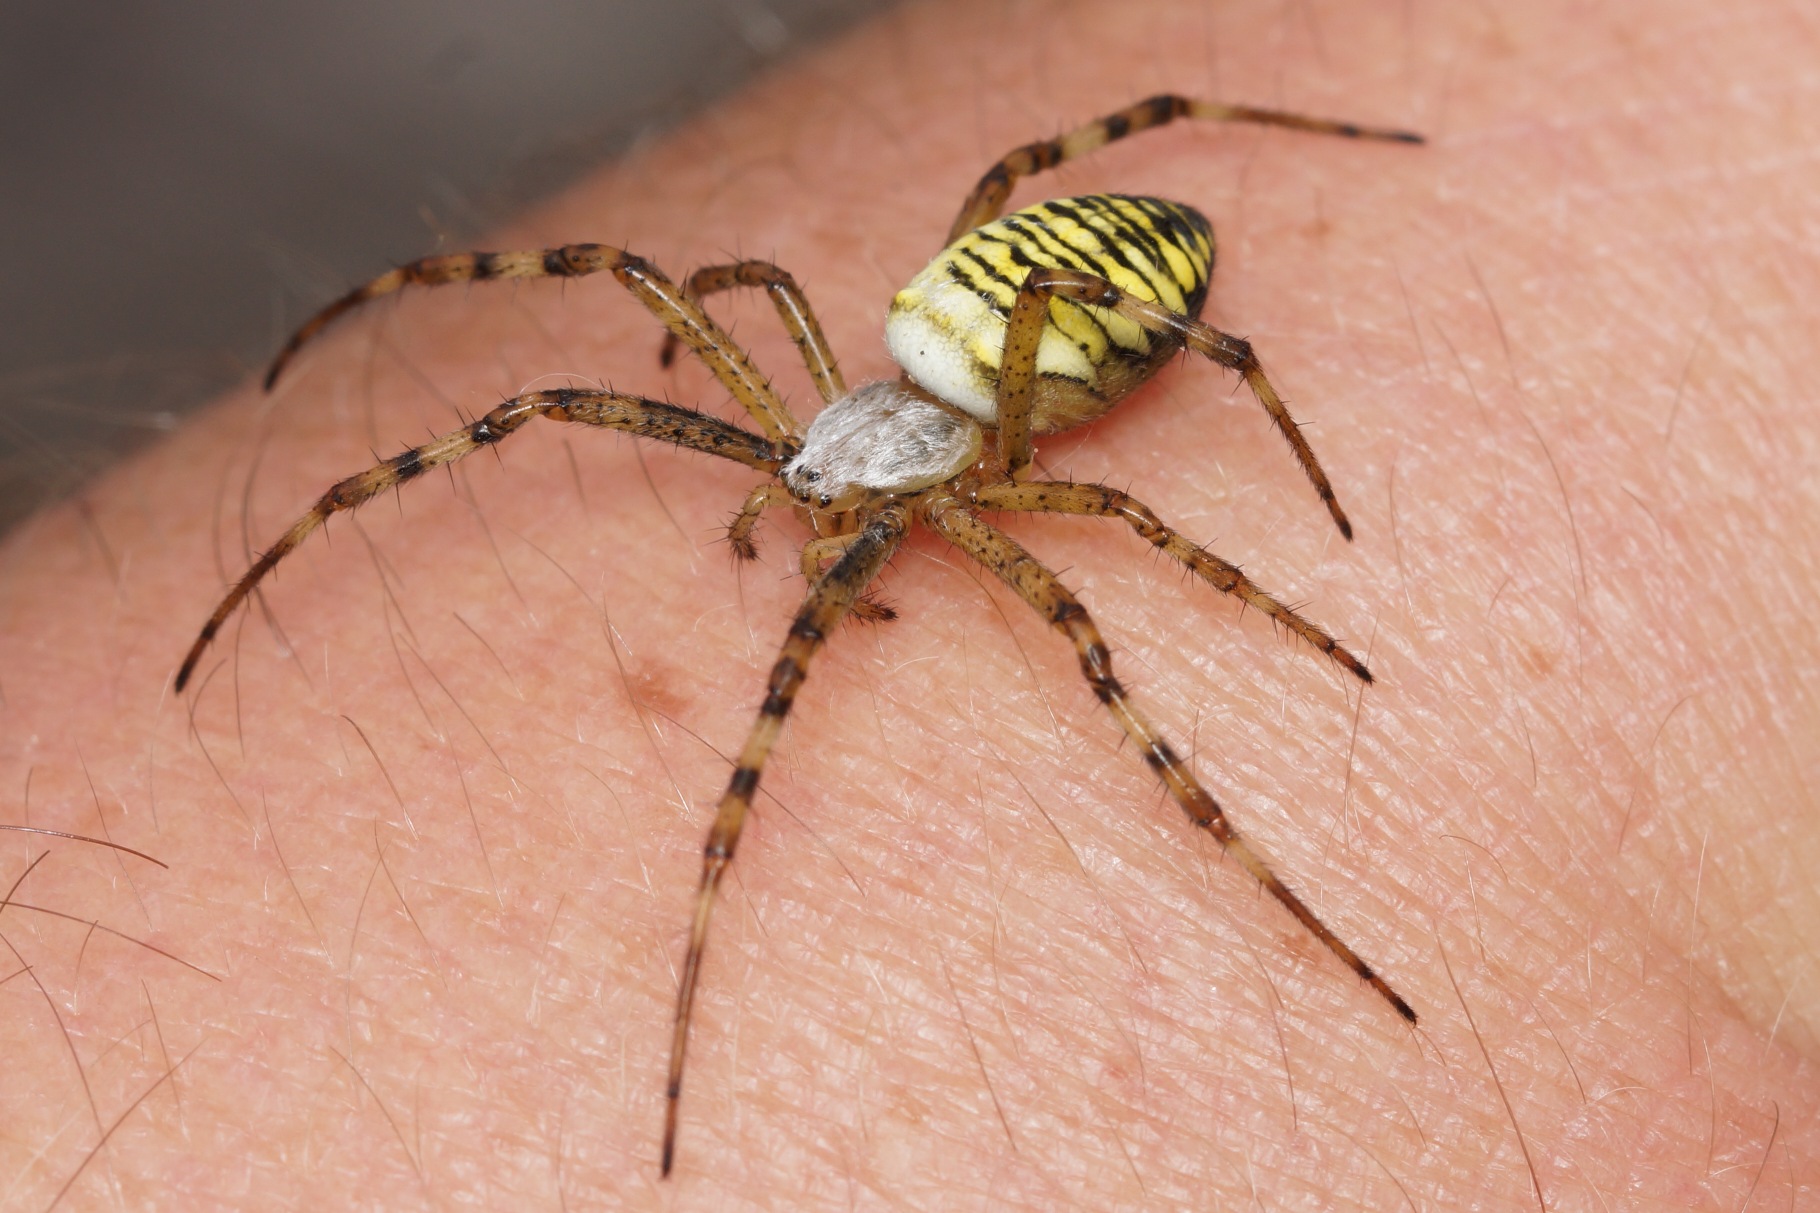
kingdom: Animalia
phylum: Arthropoda
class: Arachnida
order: Araneae
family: Araneidae
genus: Argiope
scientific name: Argiope bruennichi
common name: Hvepseedderkop
